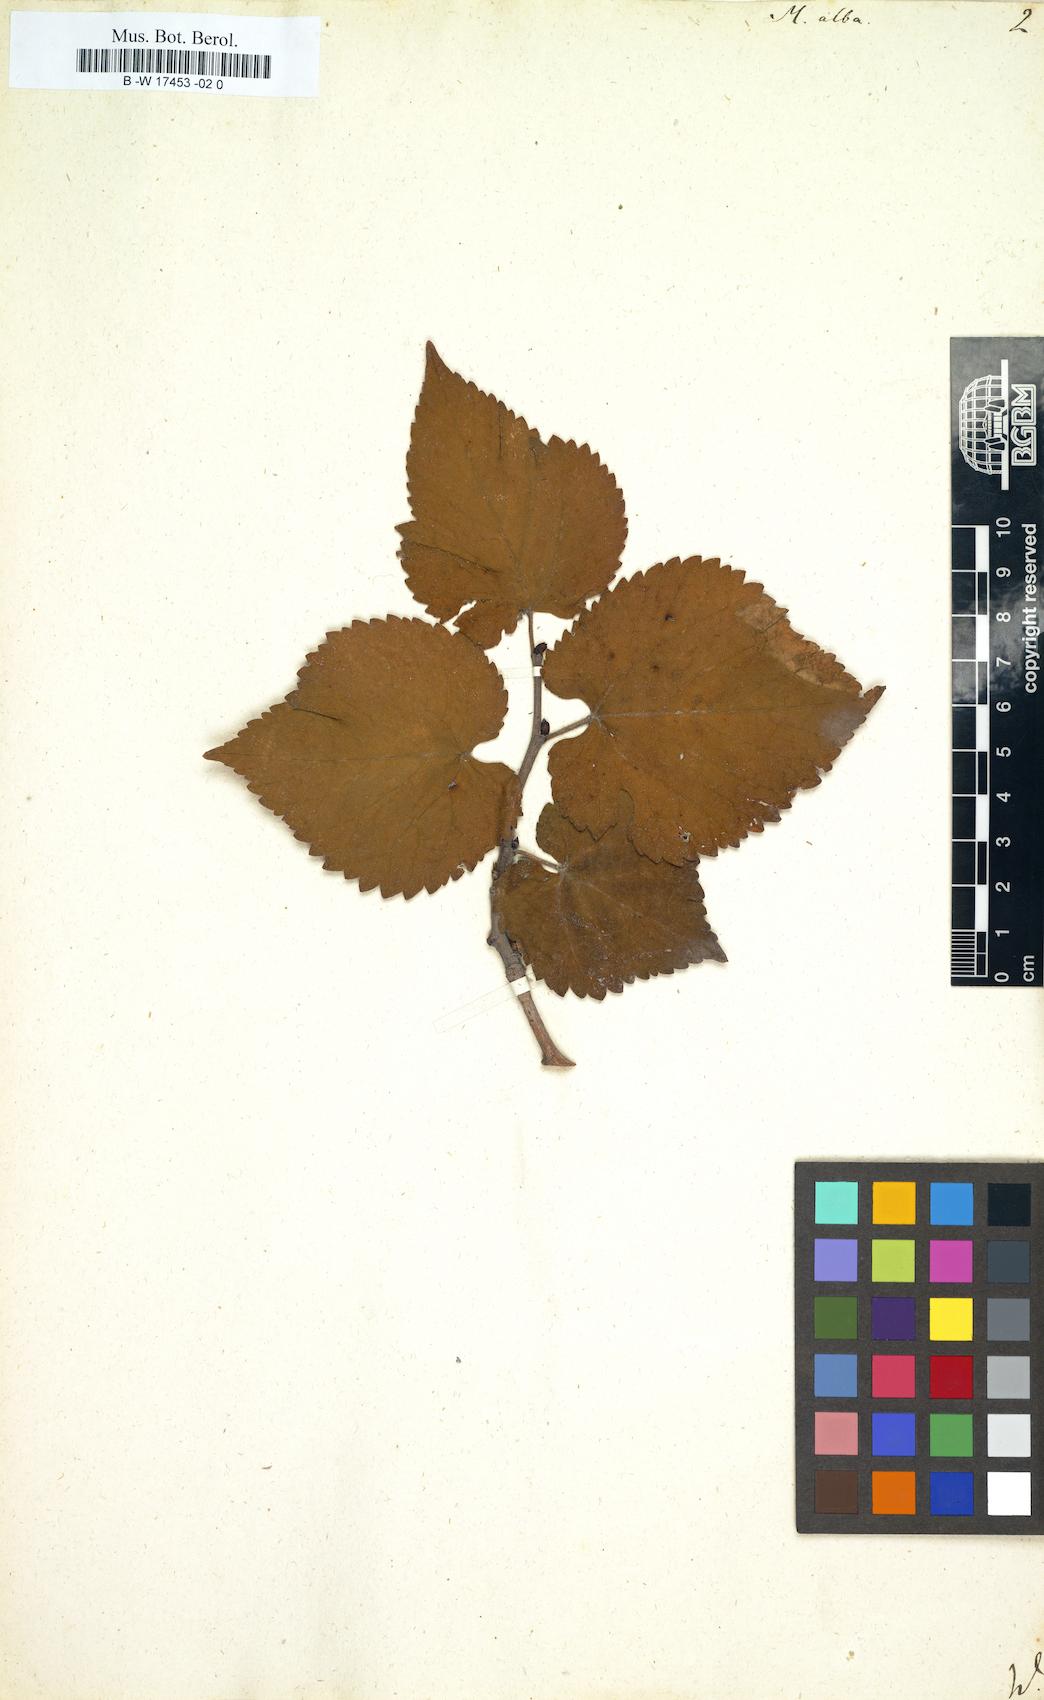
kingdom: Plantae
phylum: Tracheophyta
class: Magnoliopsida
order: Rosales
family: Moraceae
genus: Morus
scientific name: Morus alba
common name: White mulberry
